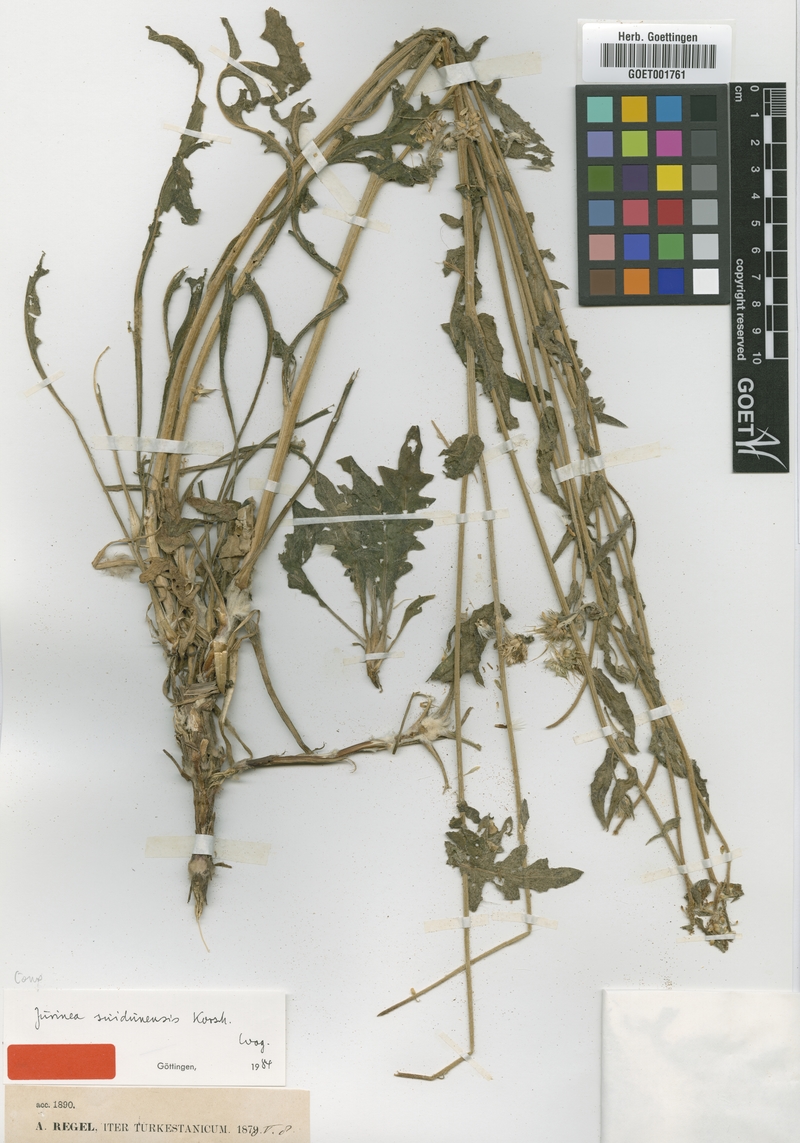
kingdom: Plantae
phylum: Tracheophyta
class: Magnoliopsida
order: Asterales
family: Asteraceae
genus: Jurinea
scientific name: Jurinea suidunensis
